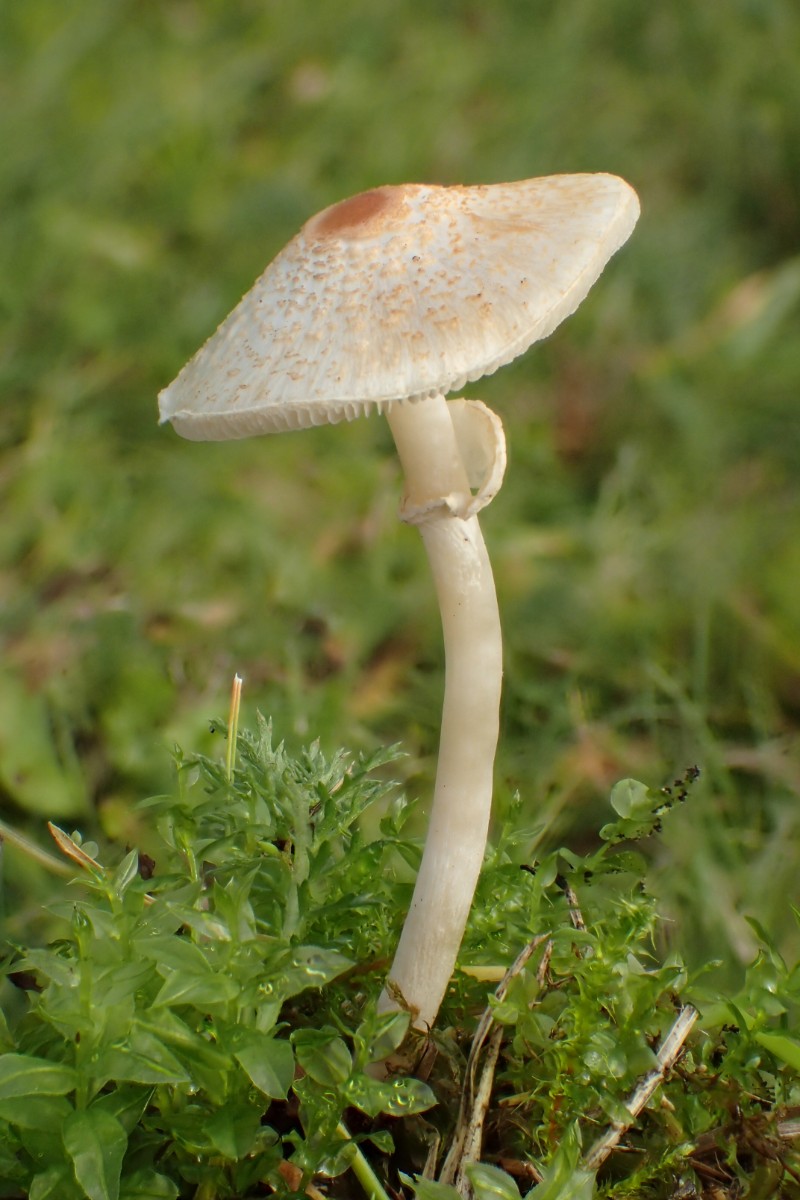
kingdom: Fungi
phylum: Basidiomycota
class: Agaricomycetes
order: Agaricales
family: Agaricaceae
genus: Lepiota
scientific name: Lepiota cristata
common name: stinkende parasolhat
